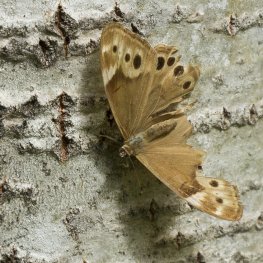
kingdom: Animalia
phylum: Arthropoda
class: Insecta
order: Lepidoptera
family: Nymphalidae
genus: Lethe
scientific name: Lethe anthedon
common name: Northern Pearly-Eye
